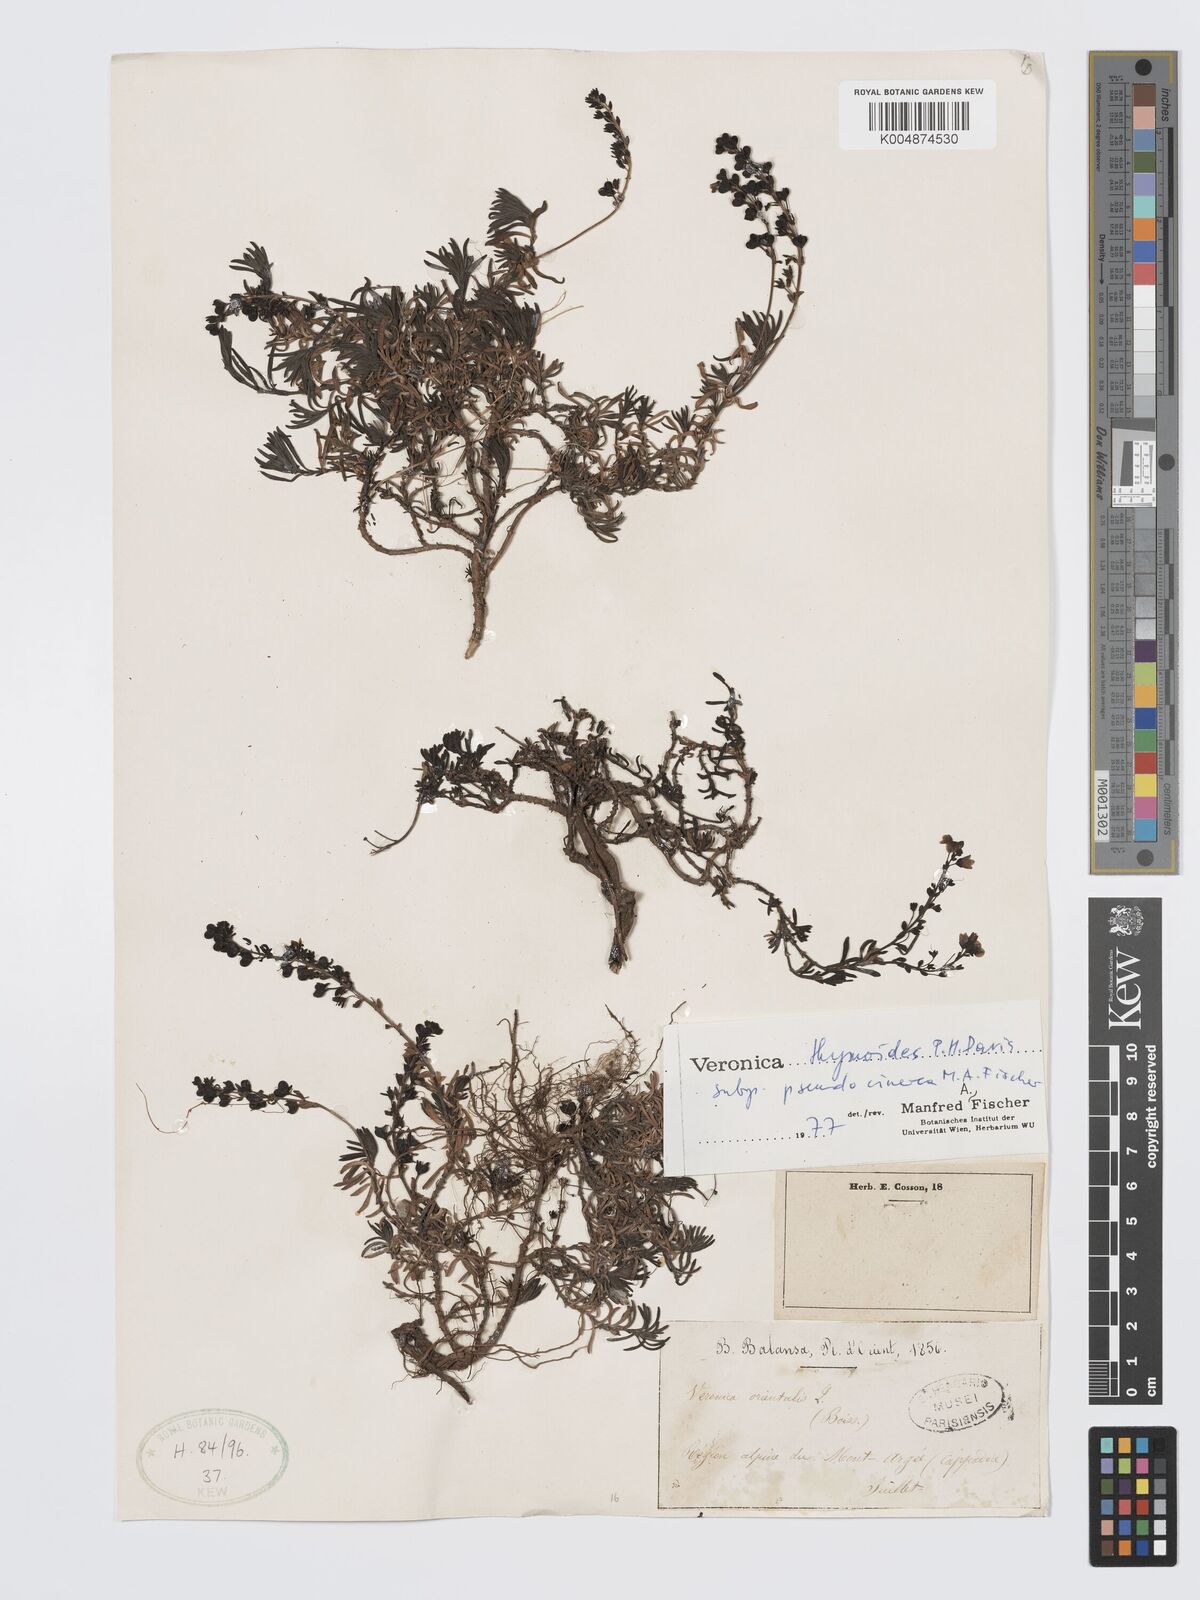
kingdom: Plantae
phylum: Tracheophyta
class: Magnoliopsida
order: Lamiales
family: Plantaginaceae
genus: Veronica
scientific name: Veronica thymoides
